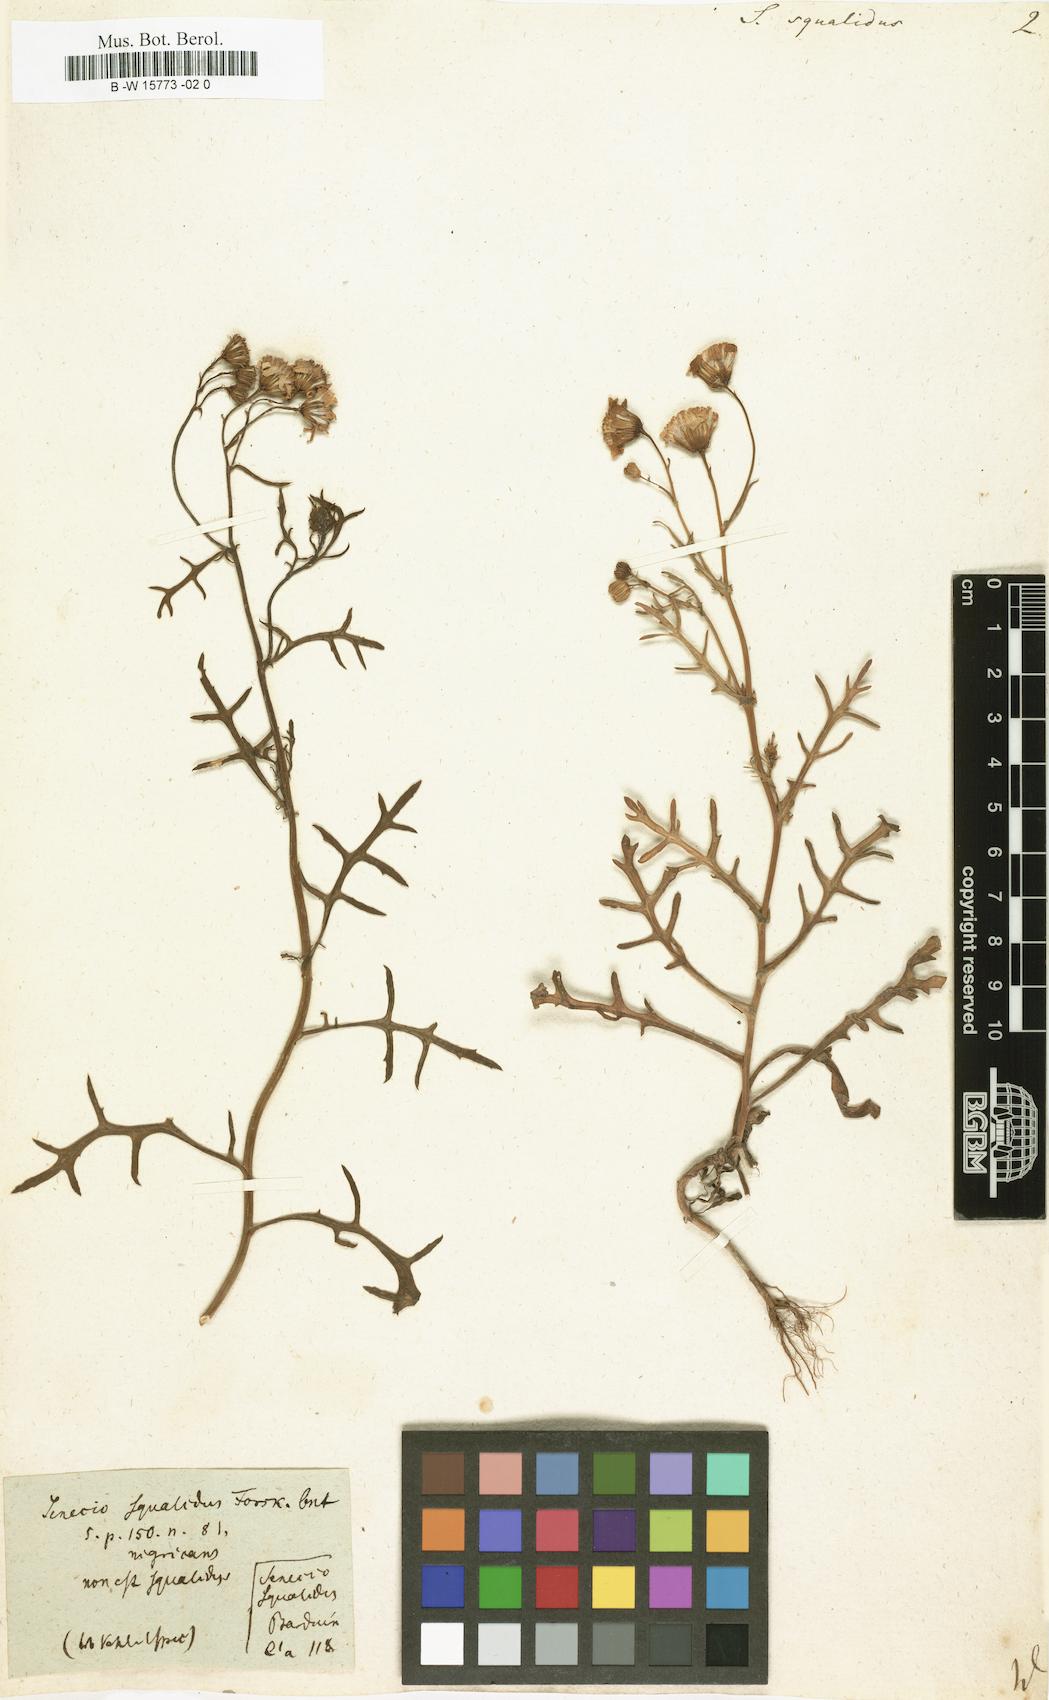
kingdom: Plantae
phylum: Tracheophyta
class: Magnoliopsida
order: Asterales
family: Asteraceae
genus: Senecio
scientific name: Senecio squalidus
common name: Oxford ragwort
